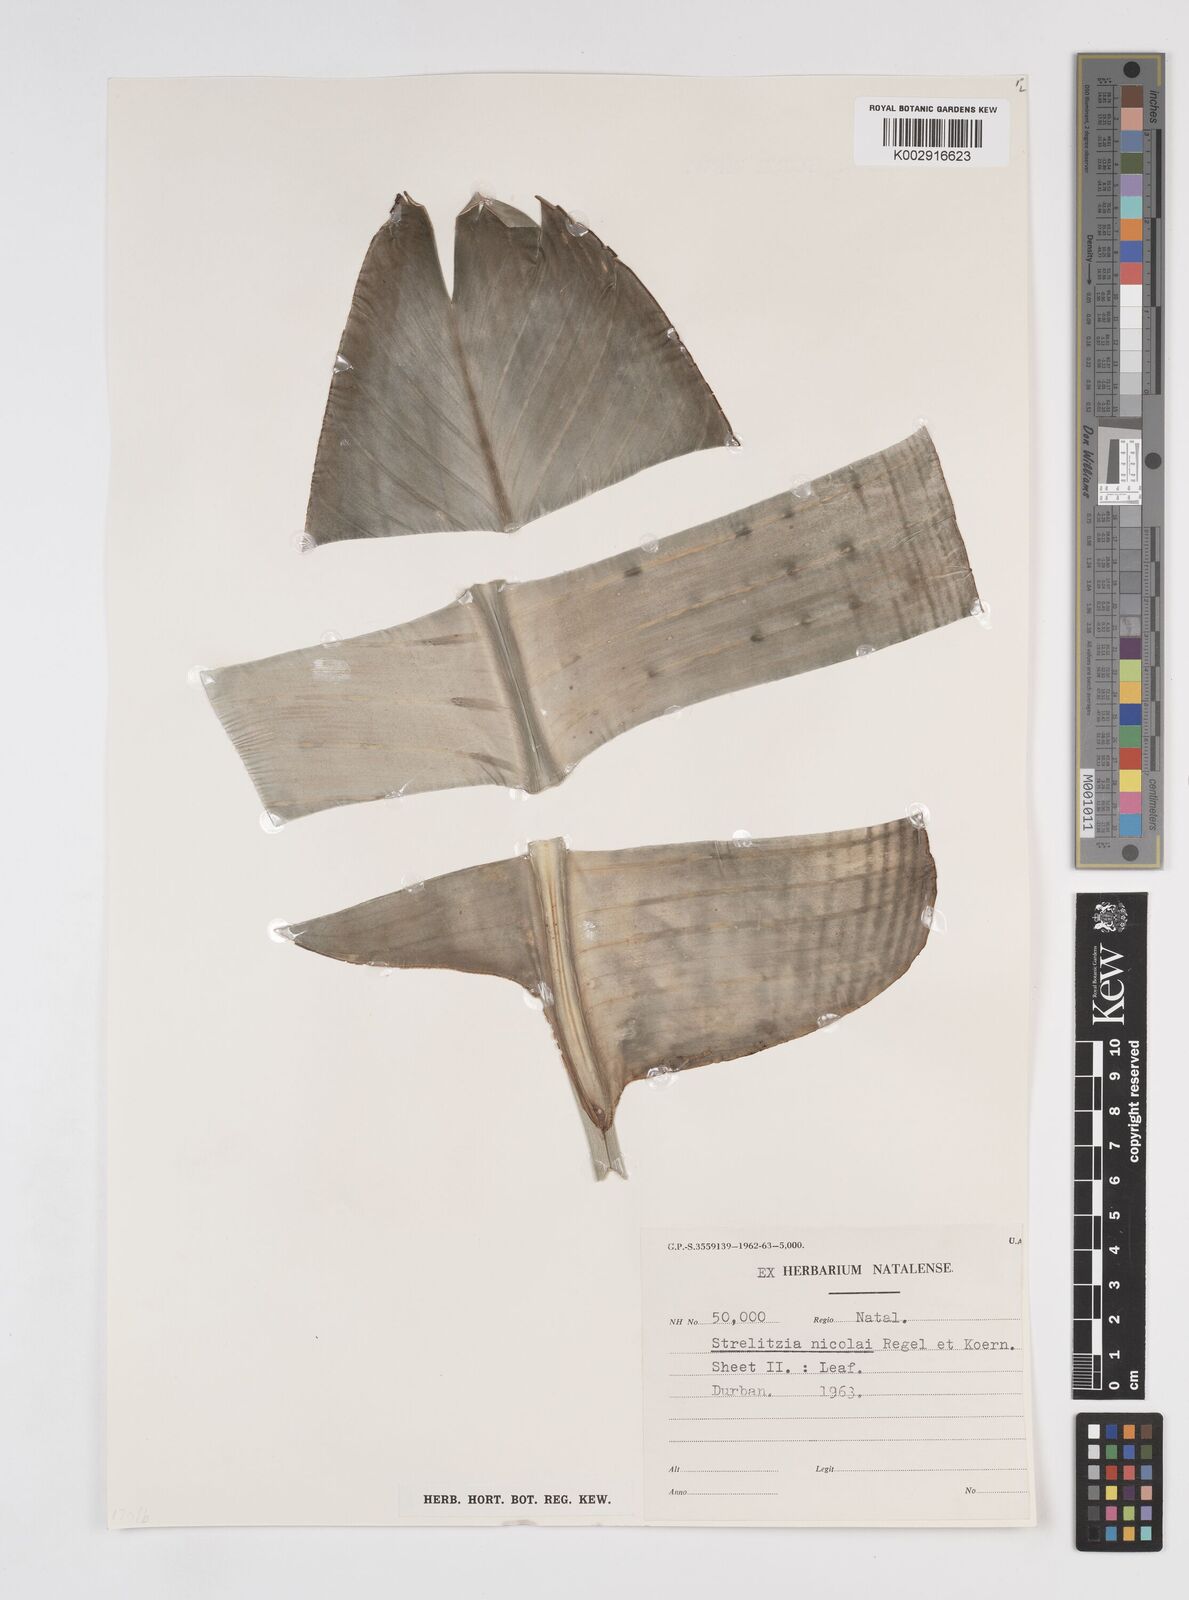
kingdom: Plantae
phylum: Tracheophyta
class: Liliopsida
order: Zingiberales
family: Strelitziaceae
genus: Strelitzia
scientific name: Strelitzia nicolai
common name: Bird-of-paradise tree
